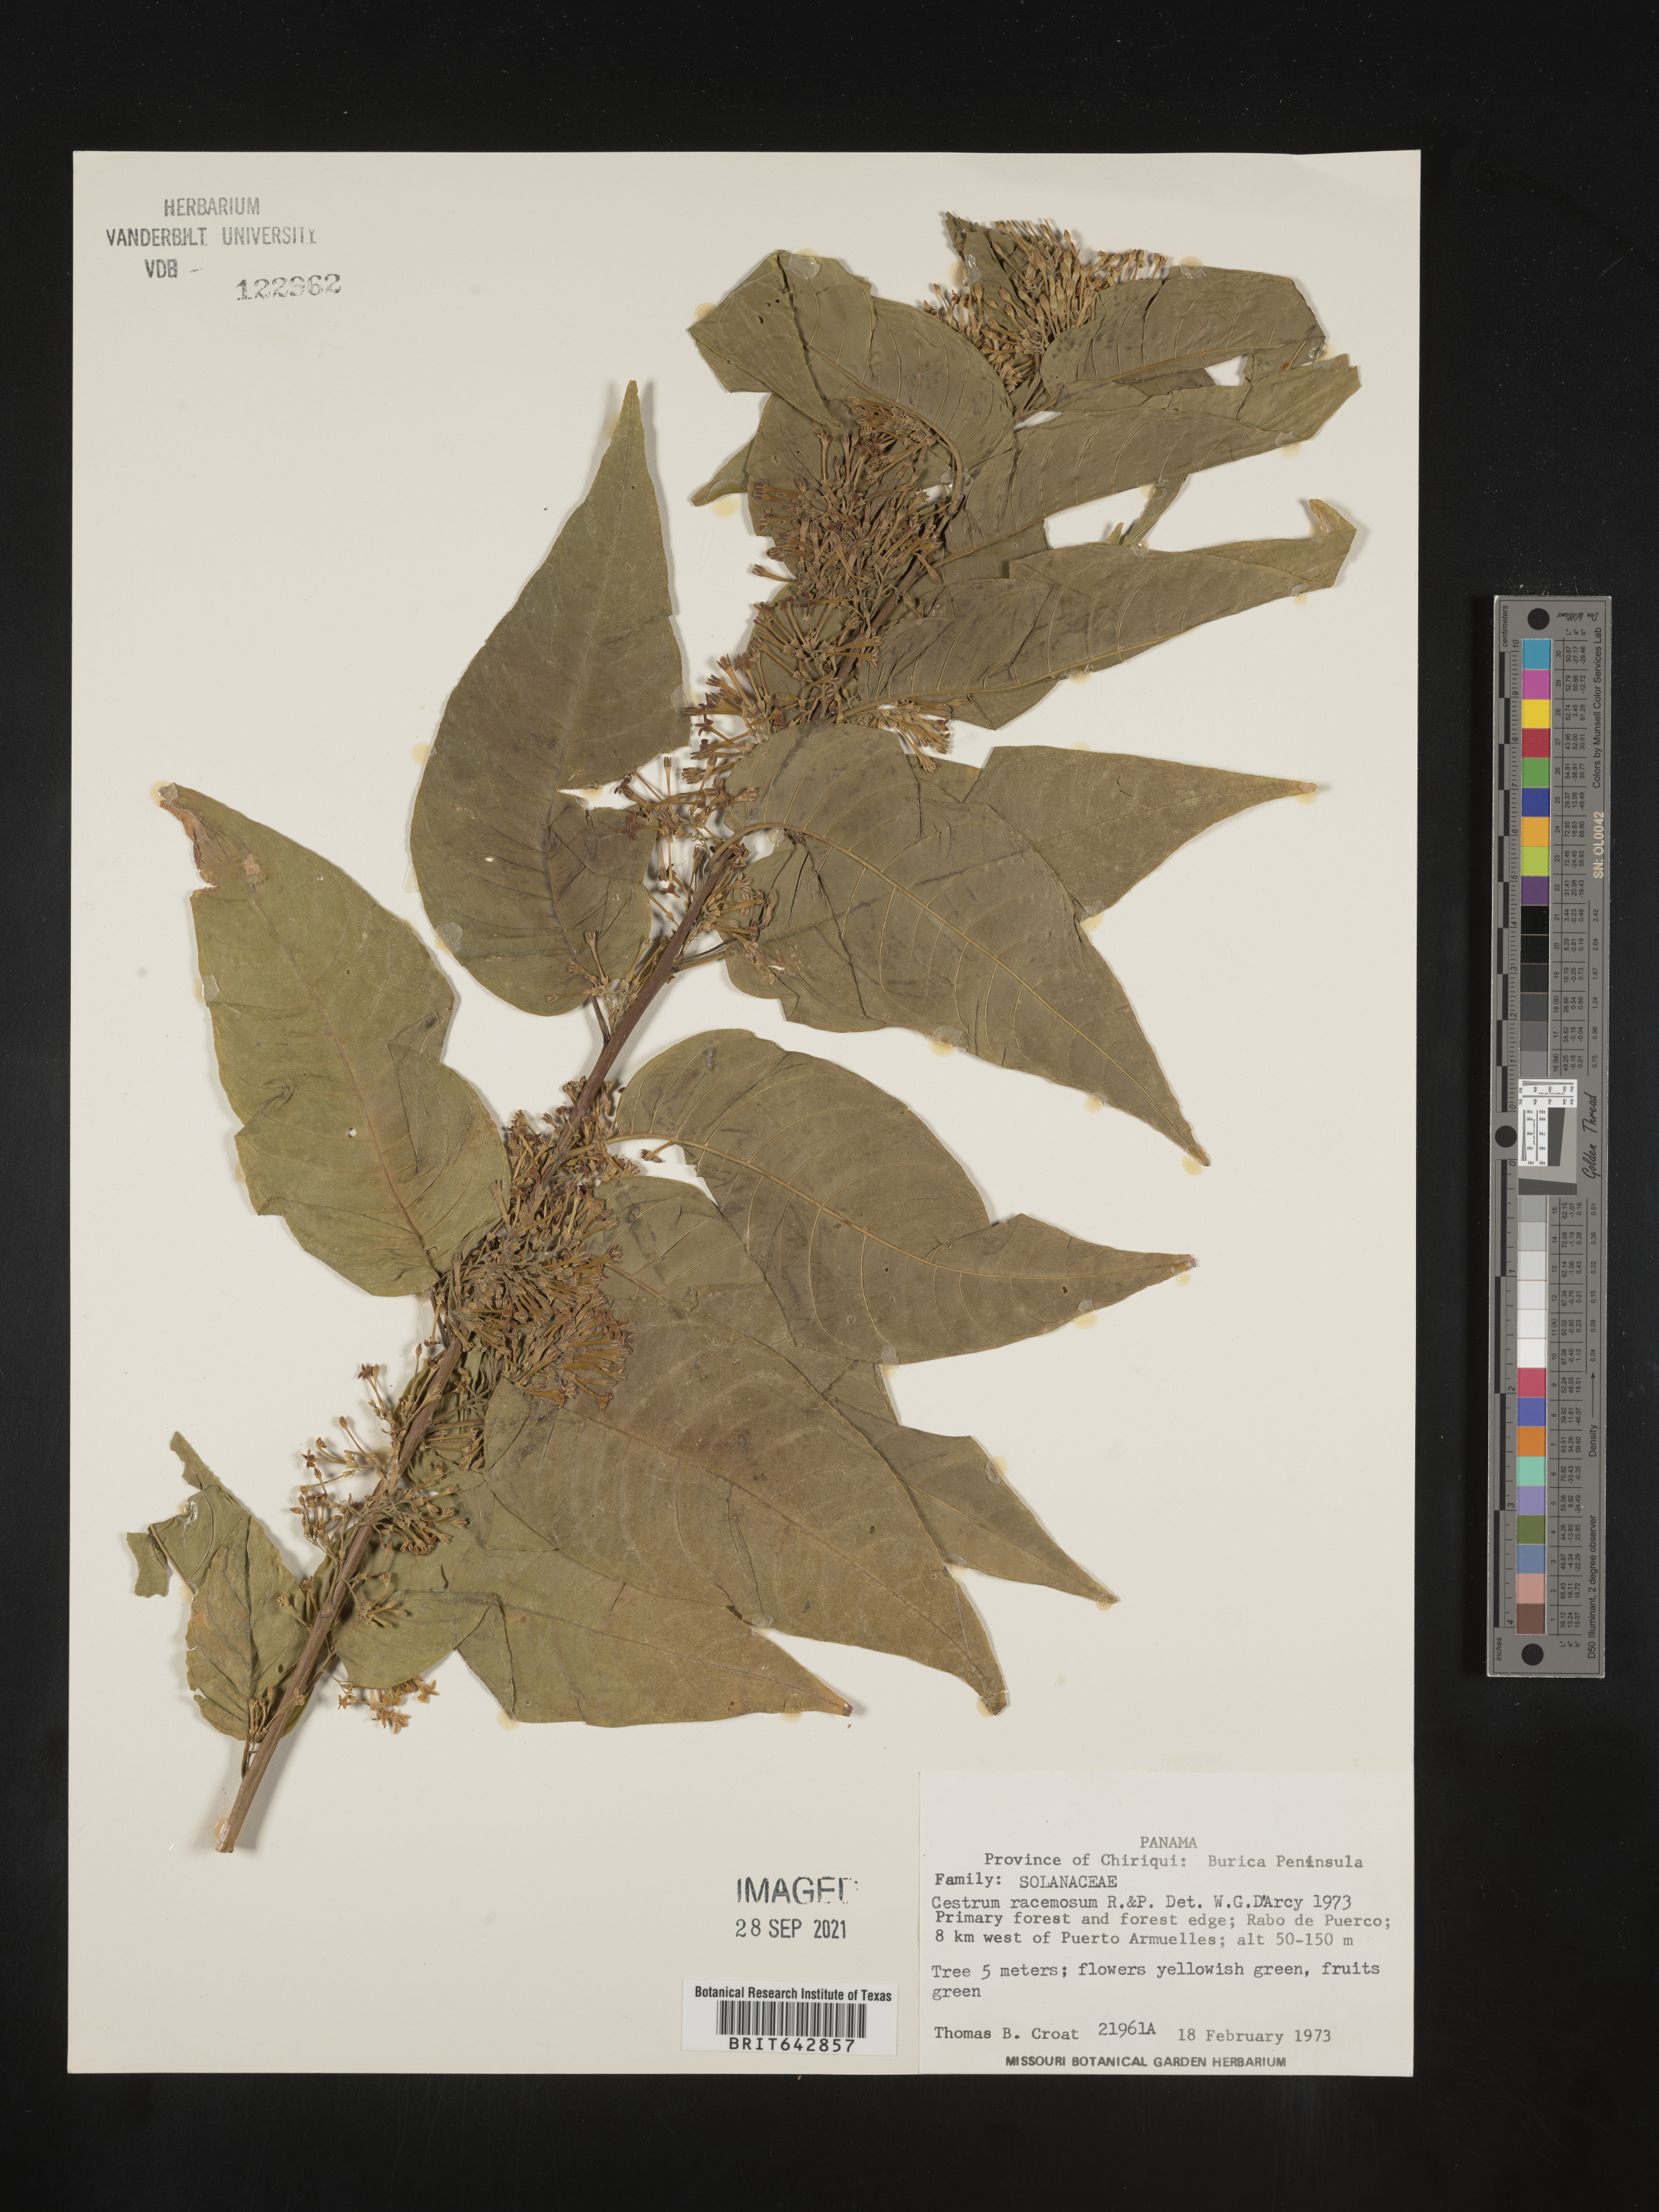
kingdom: Plantae
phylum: Tracheophyta
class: Magnoliopsida
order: Solanales
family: Solanaceae
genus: Cestrum
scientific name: Cestrum
